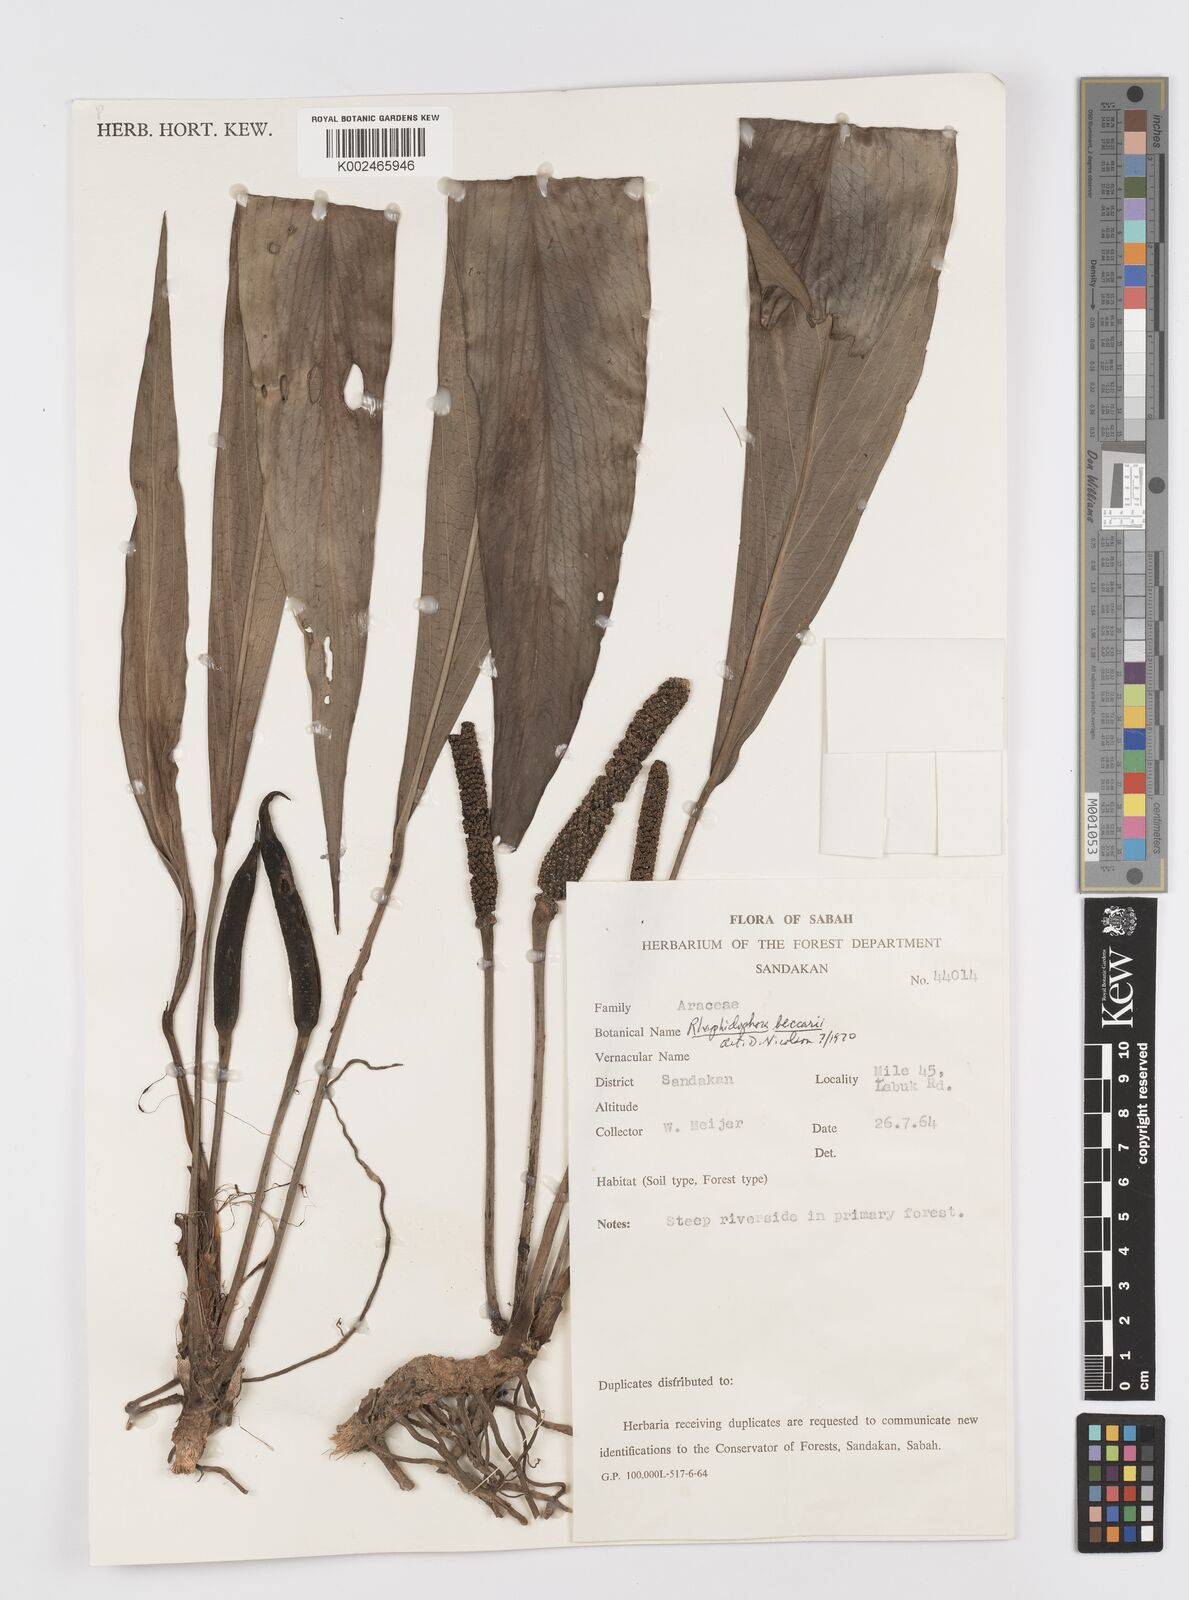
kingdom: Plantae
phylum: Tracheophyta
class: Liliopsida
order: Alismatales
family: Araceae
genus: Rhaphidophora
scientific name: Rhaphidophora beccarii
